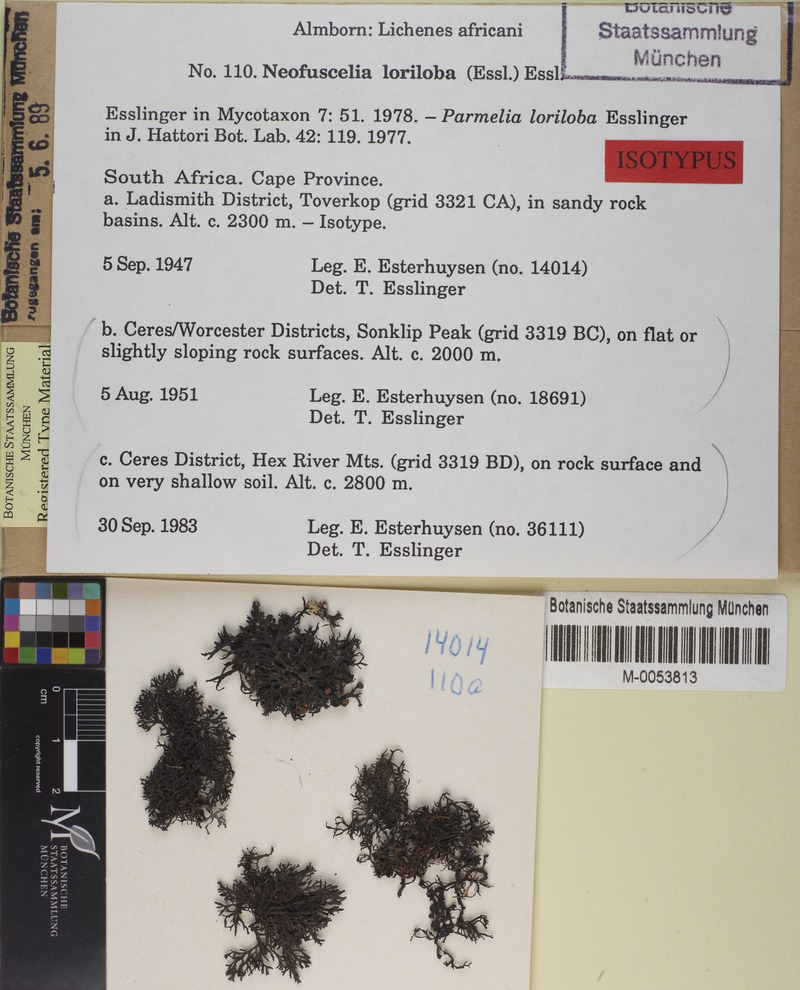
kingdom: Fungi
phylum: Ascomycota
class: Lecanoromycetes
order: Lecanorales
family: Parmeliaceae
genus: Xanthoparmelia
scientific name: Xanthoparmelia loriloba
